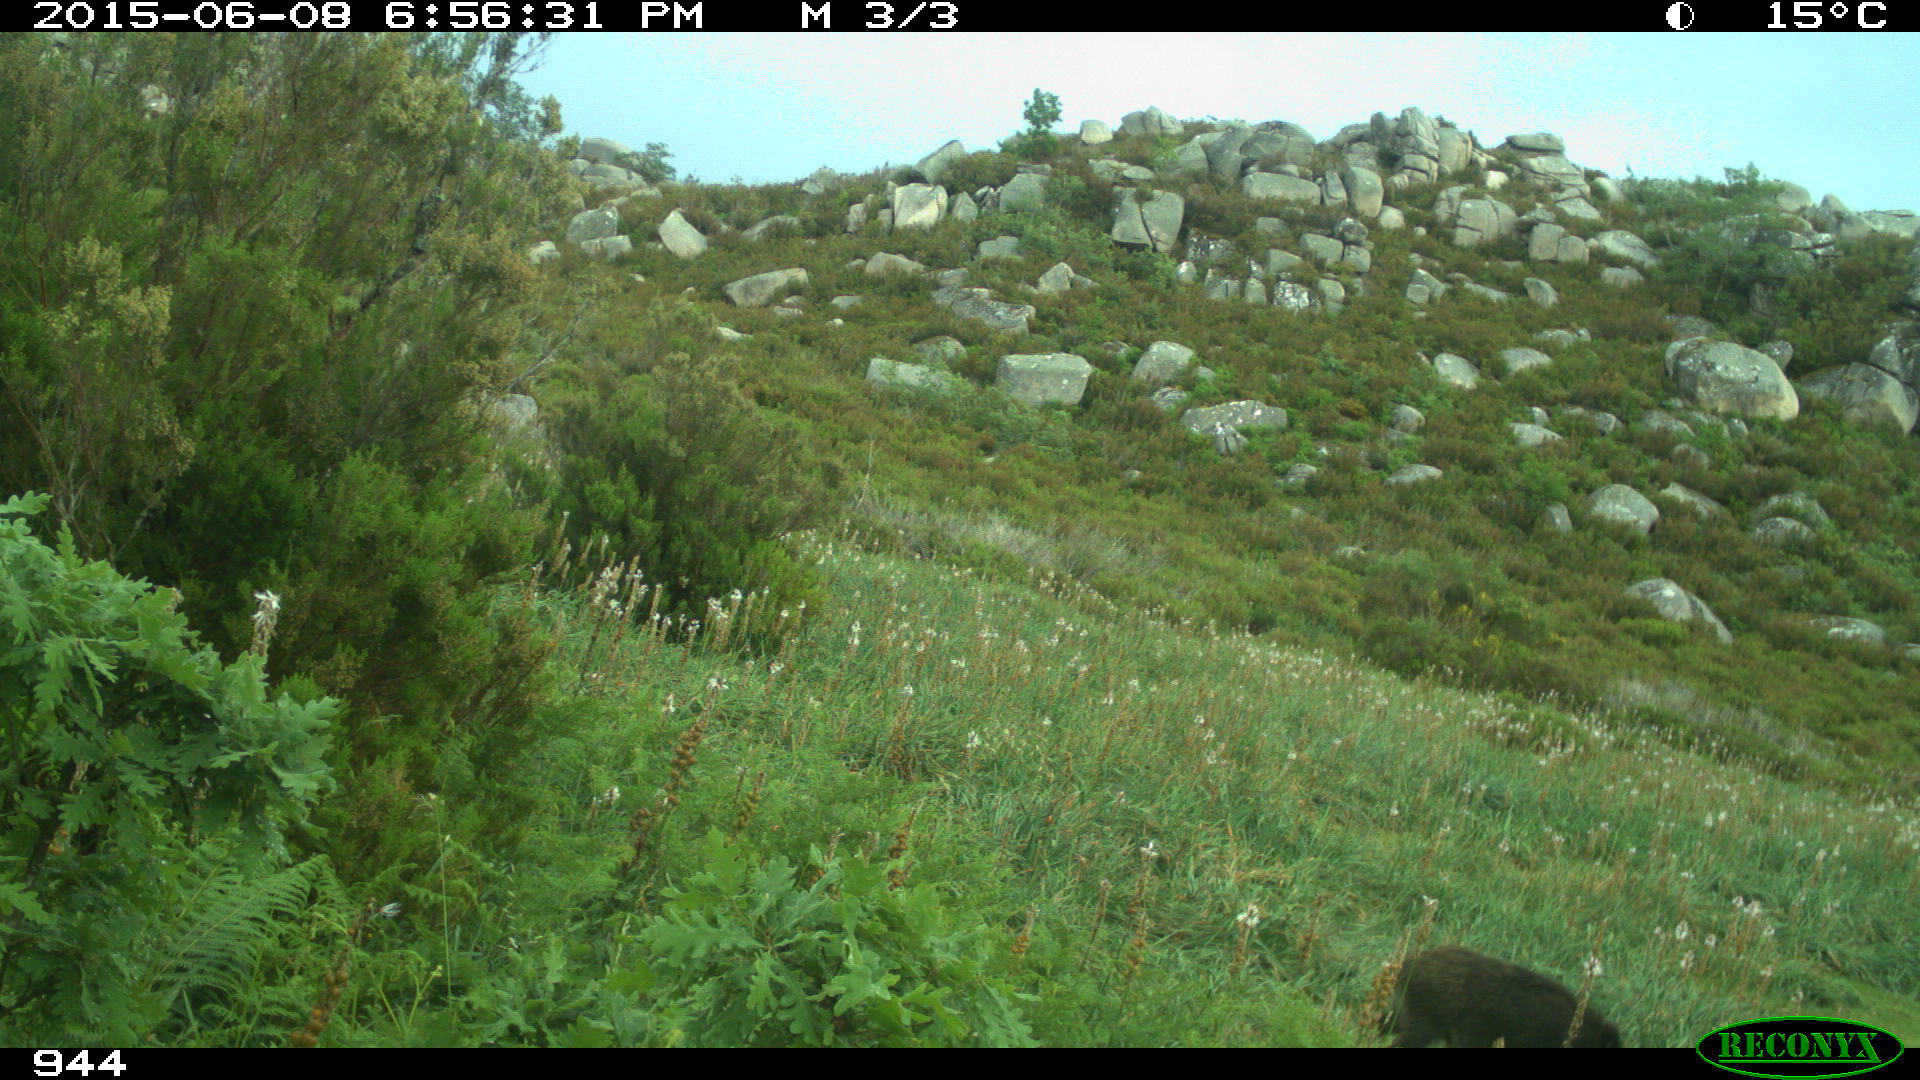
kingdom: Animalia
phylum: Chordata
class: Mammalia
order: Artiodactyla
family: Suidae
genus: Sus
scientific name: Sus scrofa
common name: Wild boar
